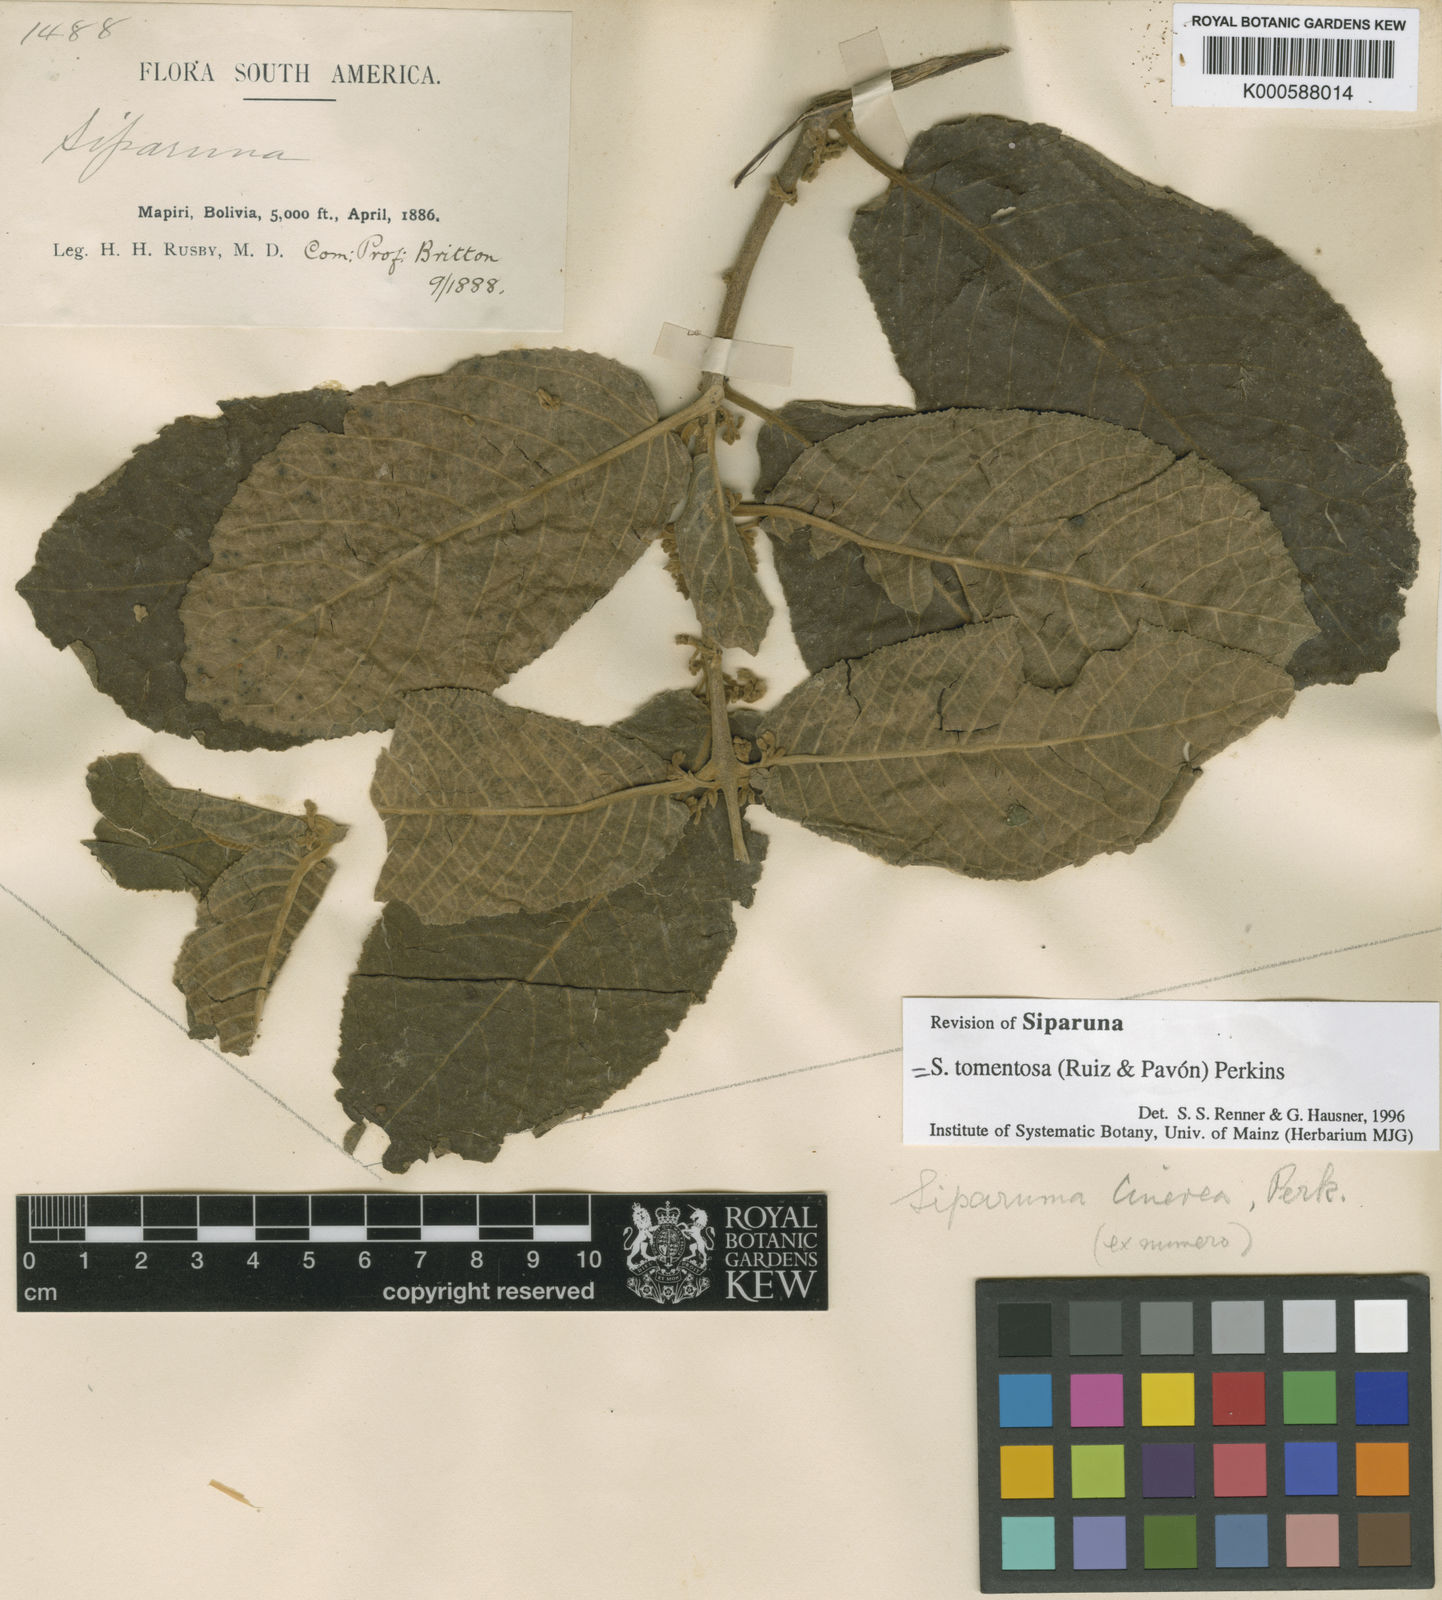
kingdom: Plantae
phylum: Tracheophyta
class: Magnoliopsida
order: Laurales
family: Siparunaceae
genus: Siparuna
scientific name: Siparuna tomentosa
